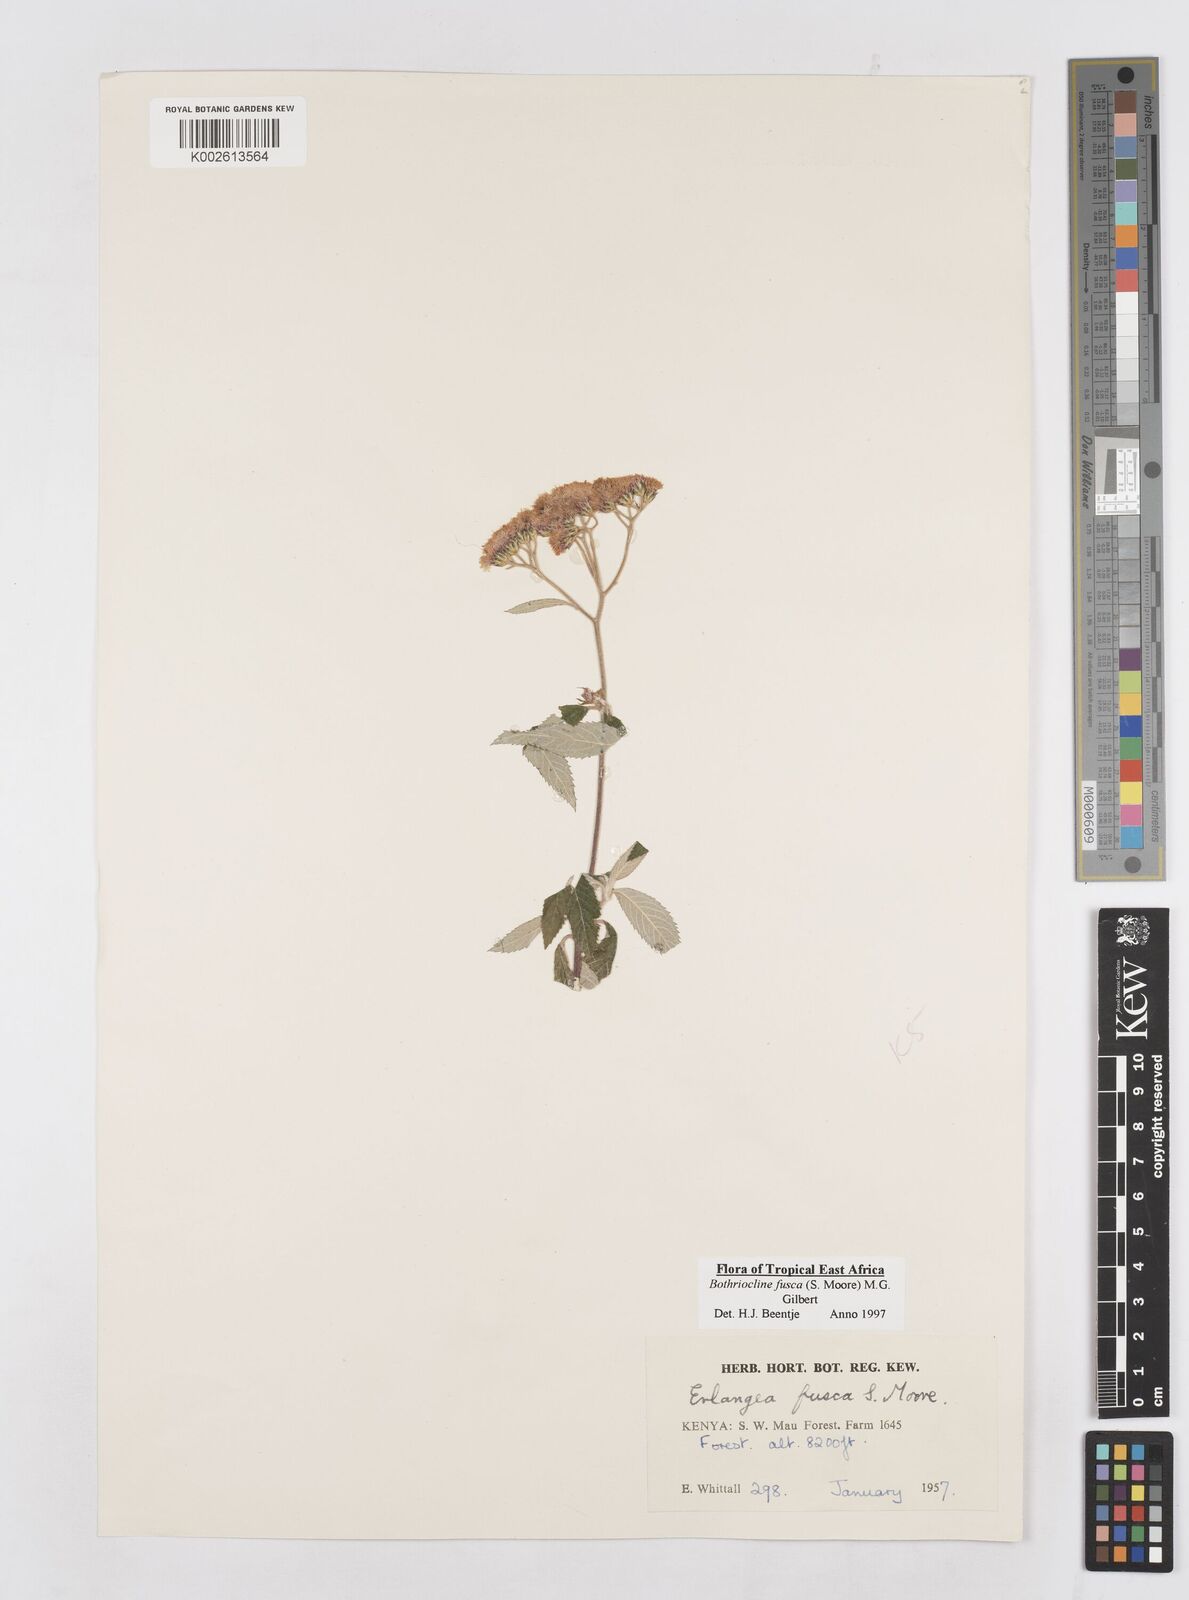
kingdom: Plantae
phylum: Tracheophyta
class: Magnoliopsida
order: Asterales
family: Asteraceae
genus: Bothriocline
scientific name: Bothriocline fusca
